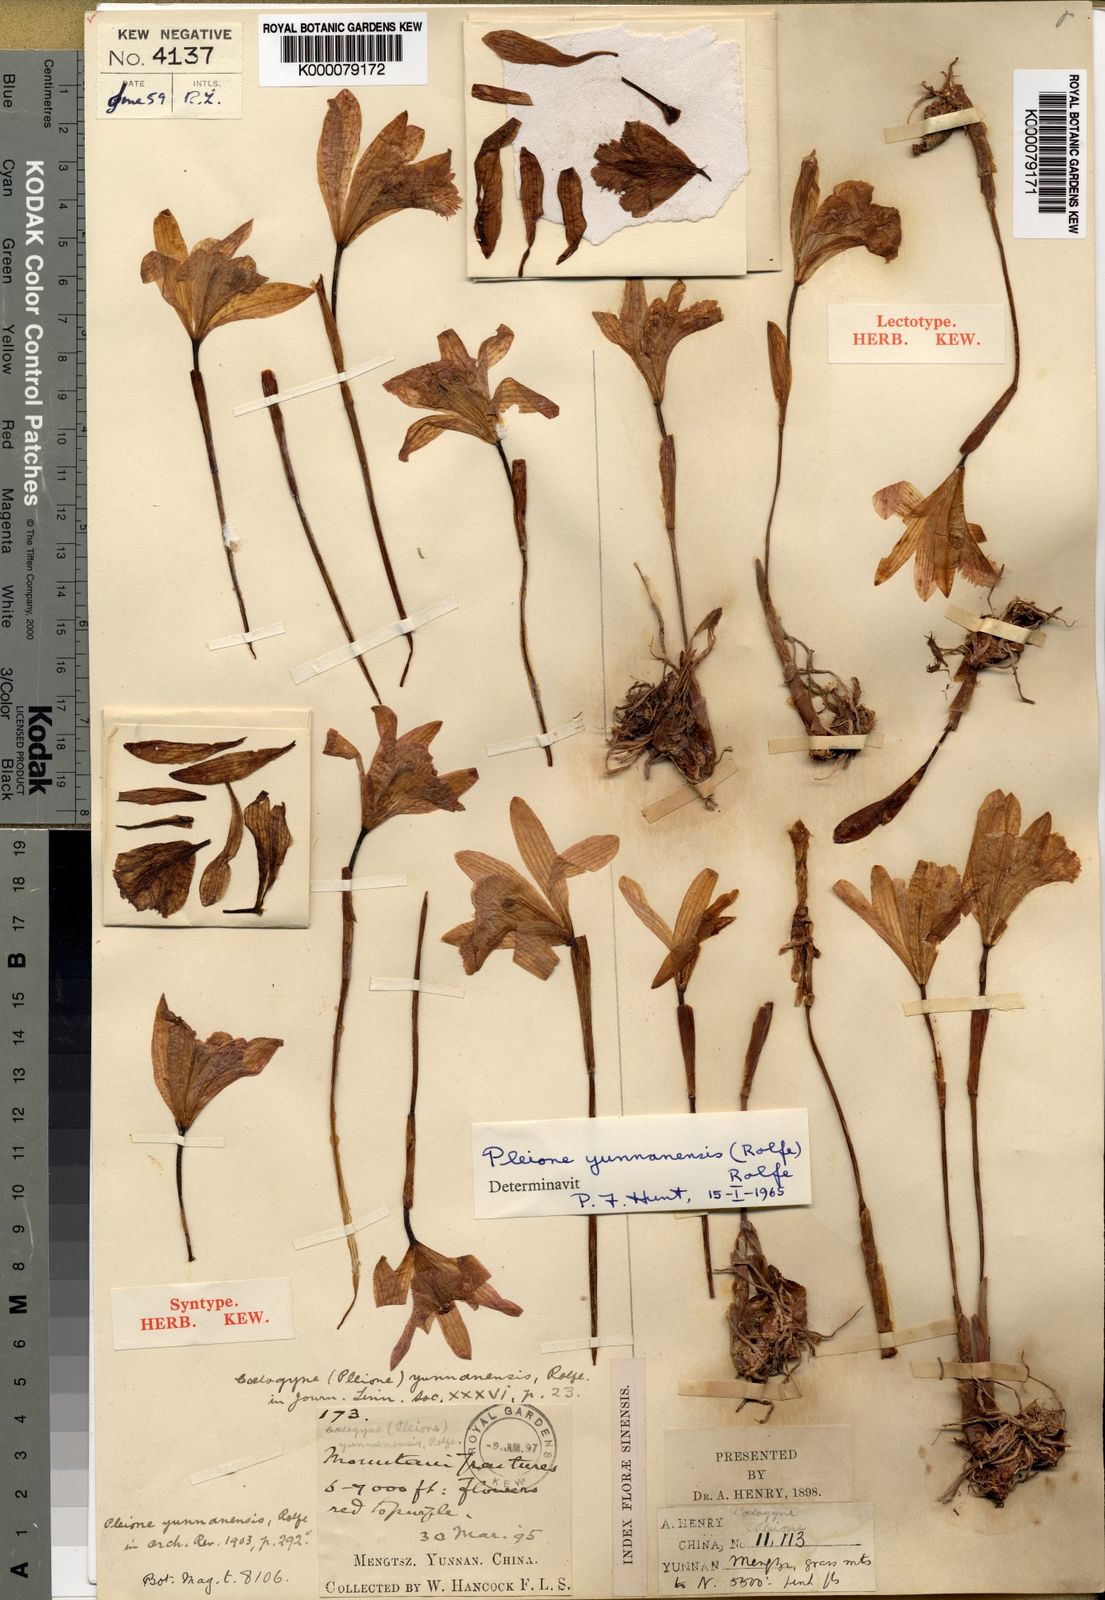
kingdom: Plantae
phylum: Tracheophyta
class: Liliopsida
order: Asparagales
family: Orchidaceae
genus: Pleione
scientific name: Pleione yunnanensis
